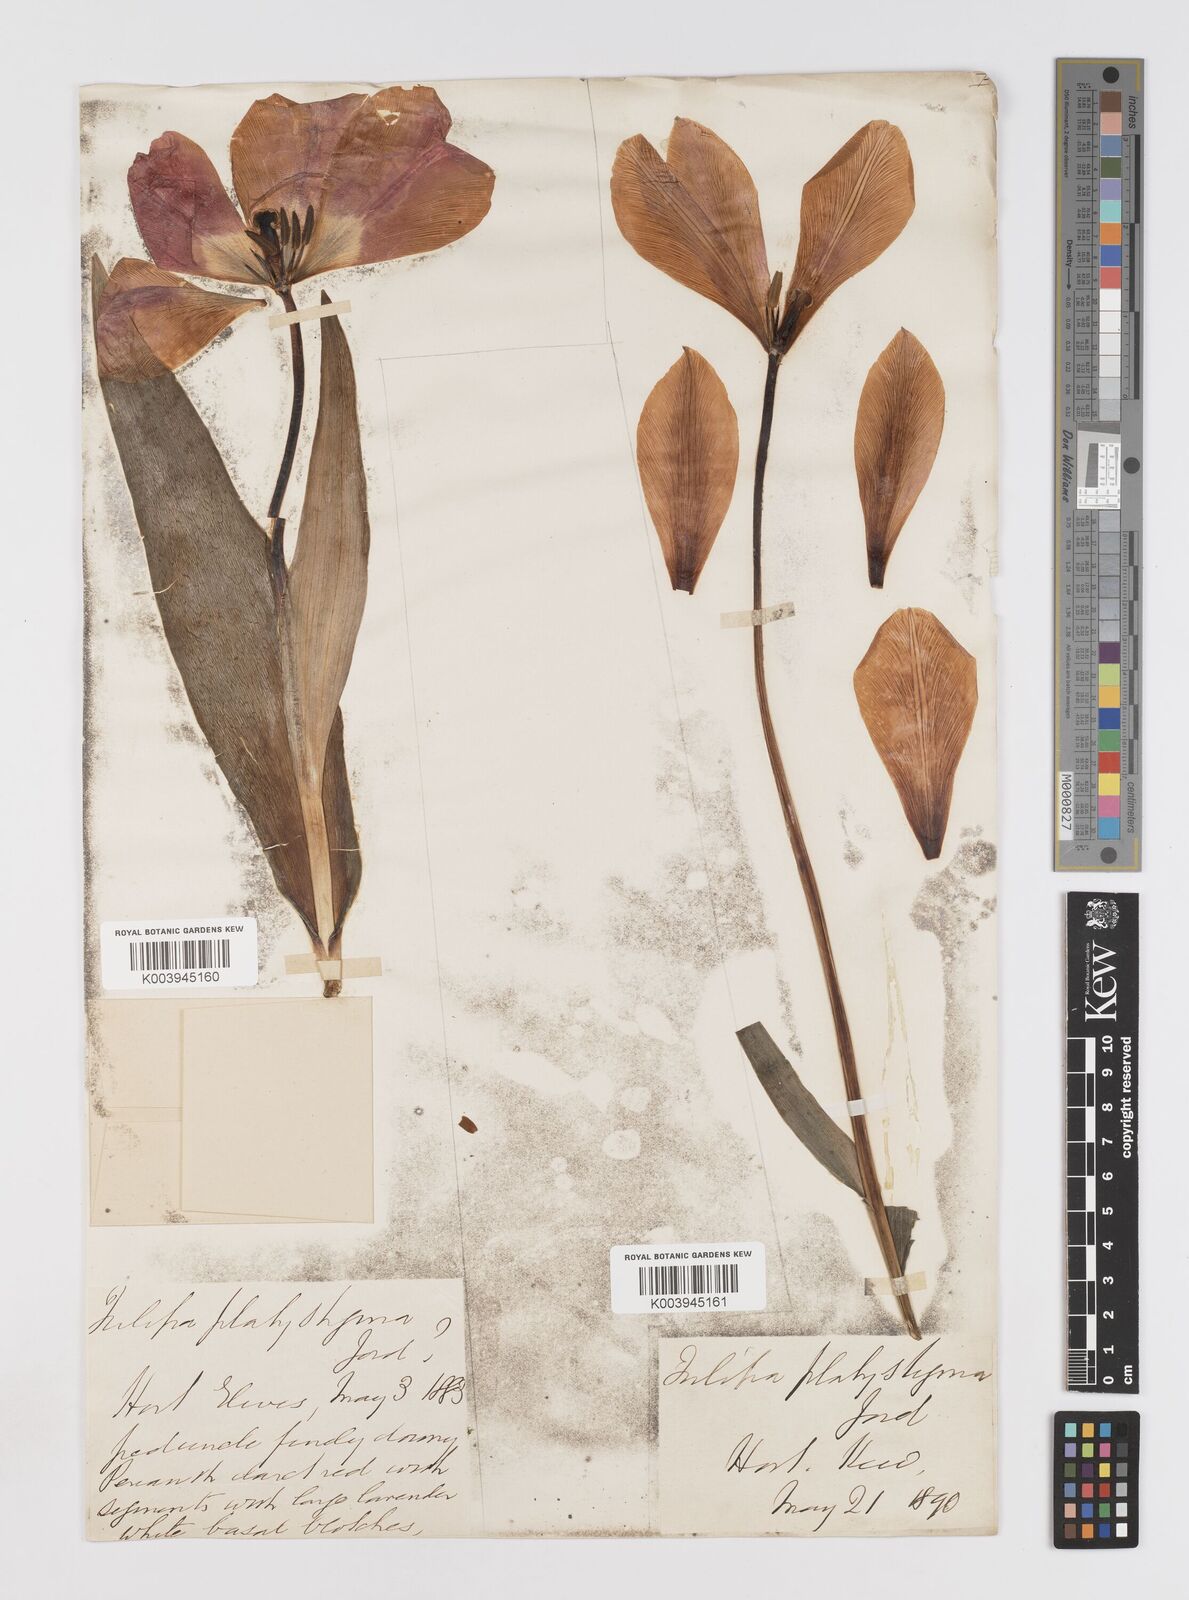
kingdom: Plantae
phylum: Tracheophyta
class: Liliopsida
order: Liliales
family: Liliaceae
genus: Tulipa
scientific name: Tulipa gesneriana
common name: Garden tulip
